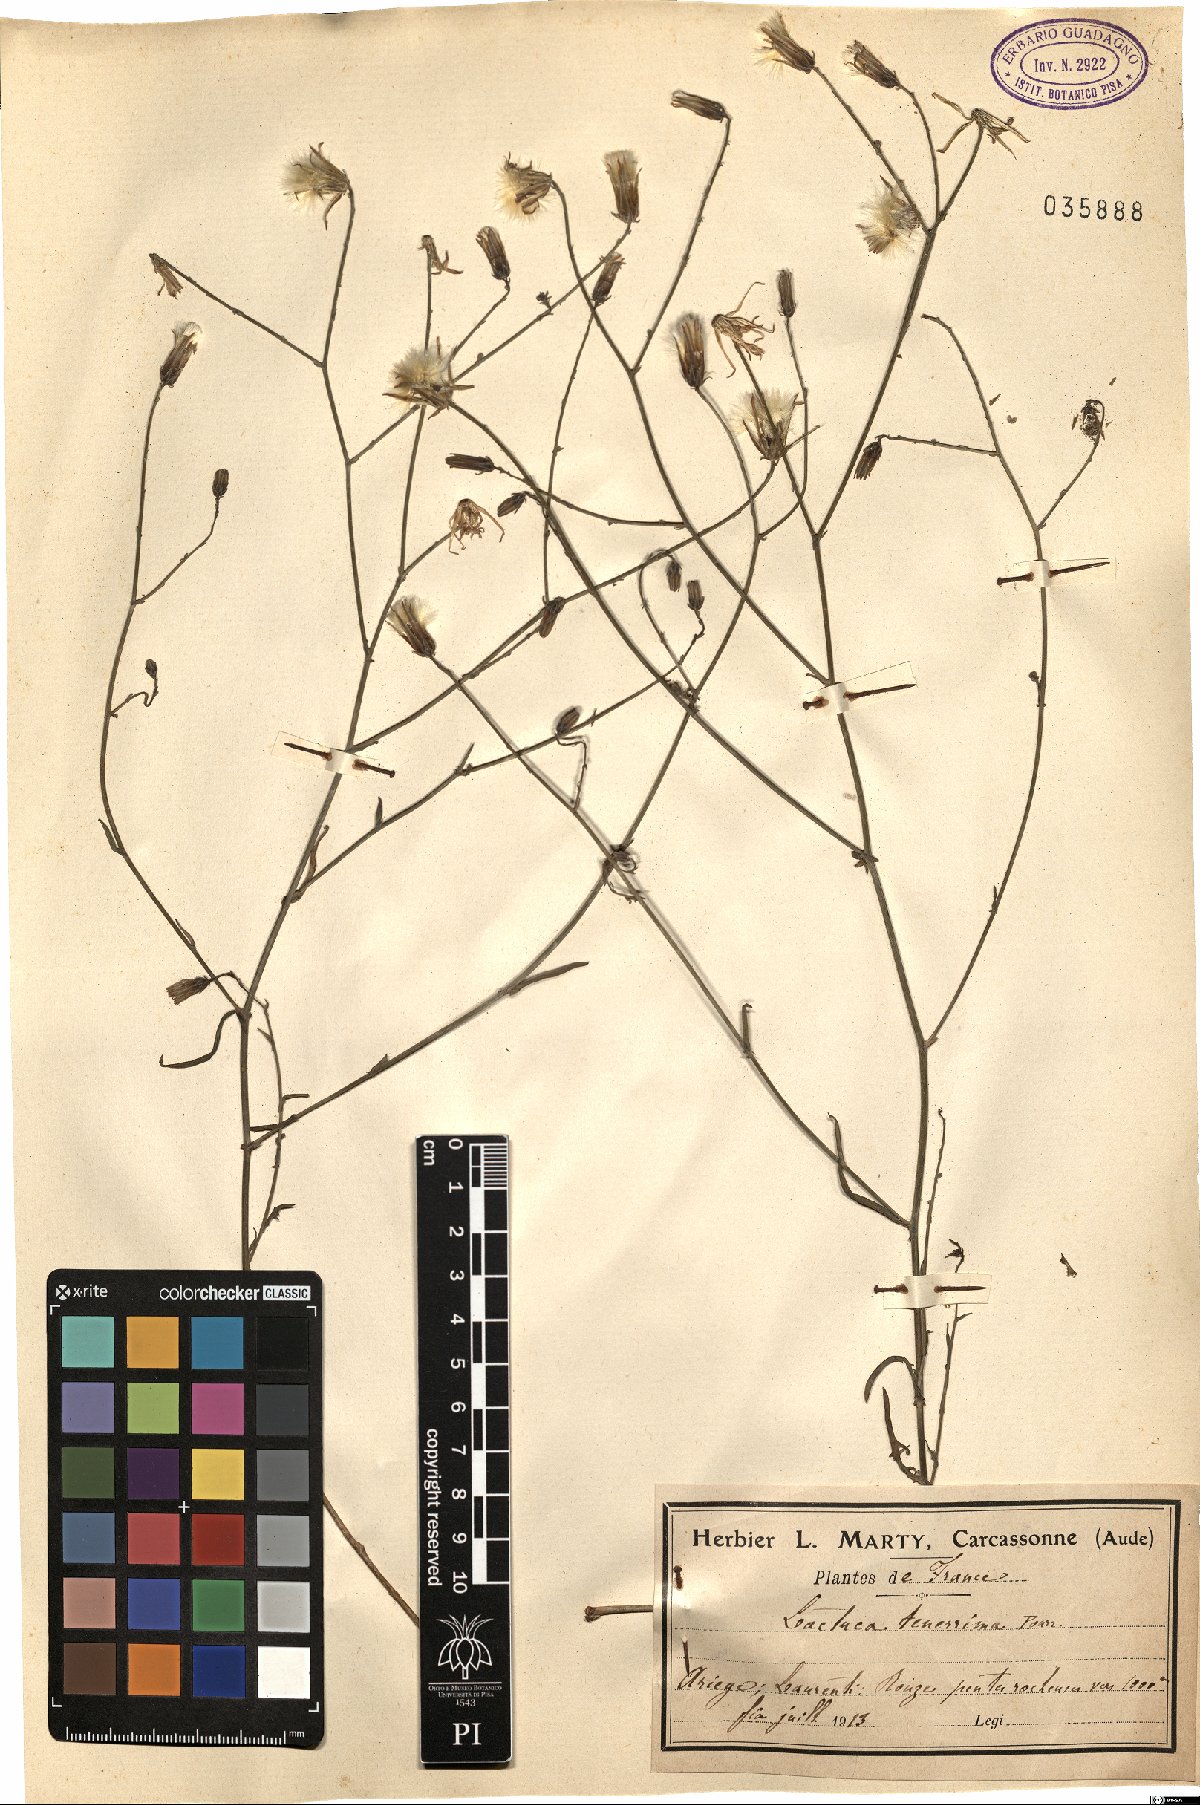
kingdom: Plantae
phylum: Tracheophyta
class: Magnoliopsida
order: Asterales
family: Asteraceae
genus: Lactuca
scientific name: Lactuca tenerrima
